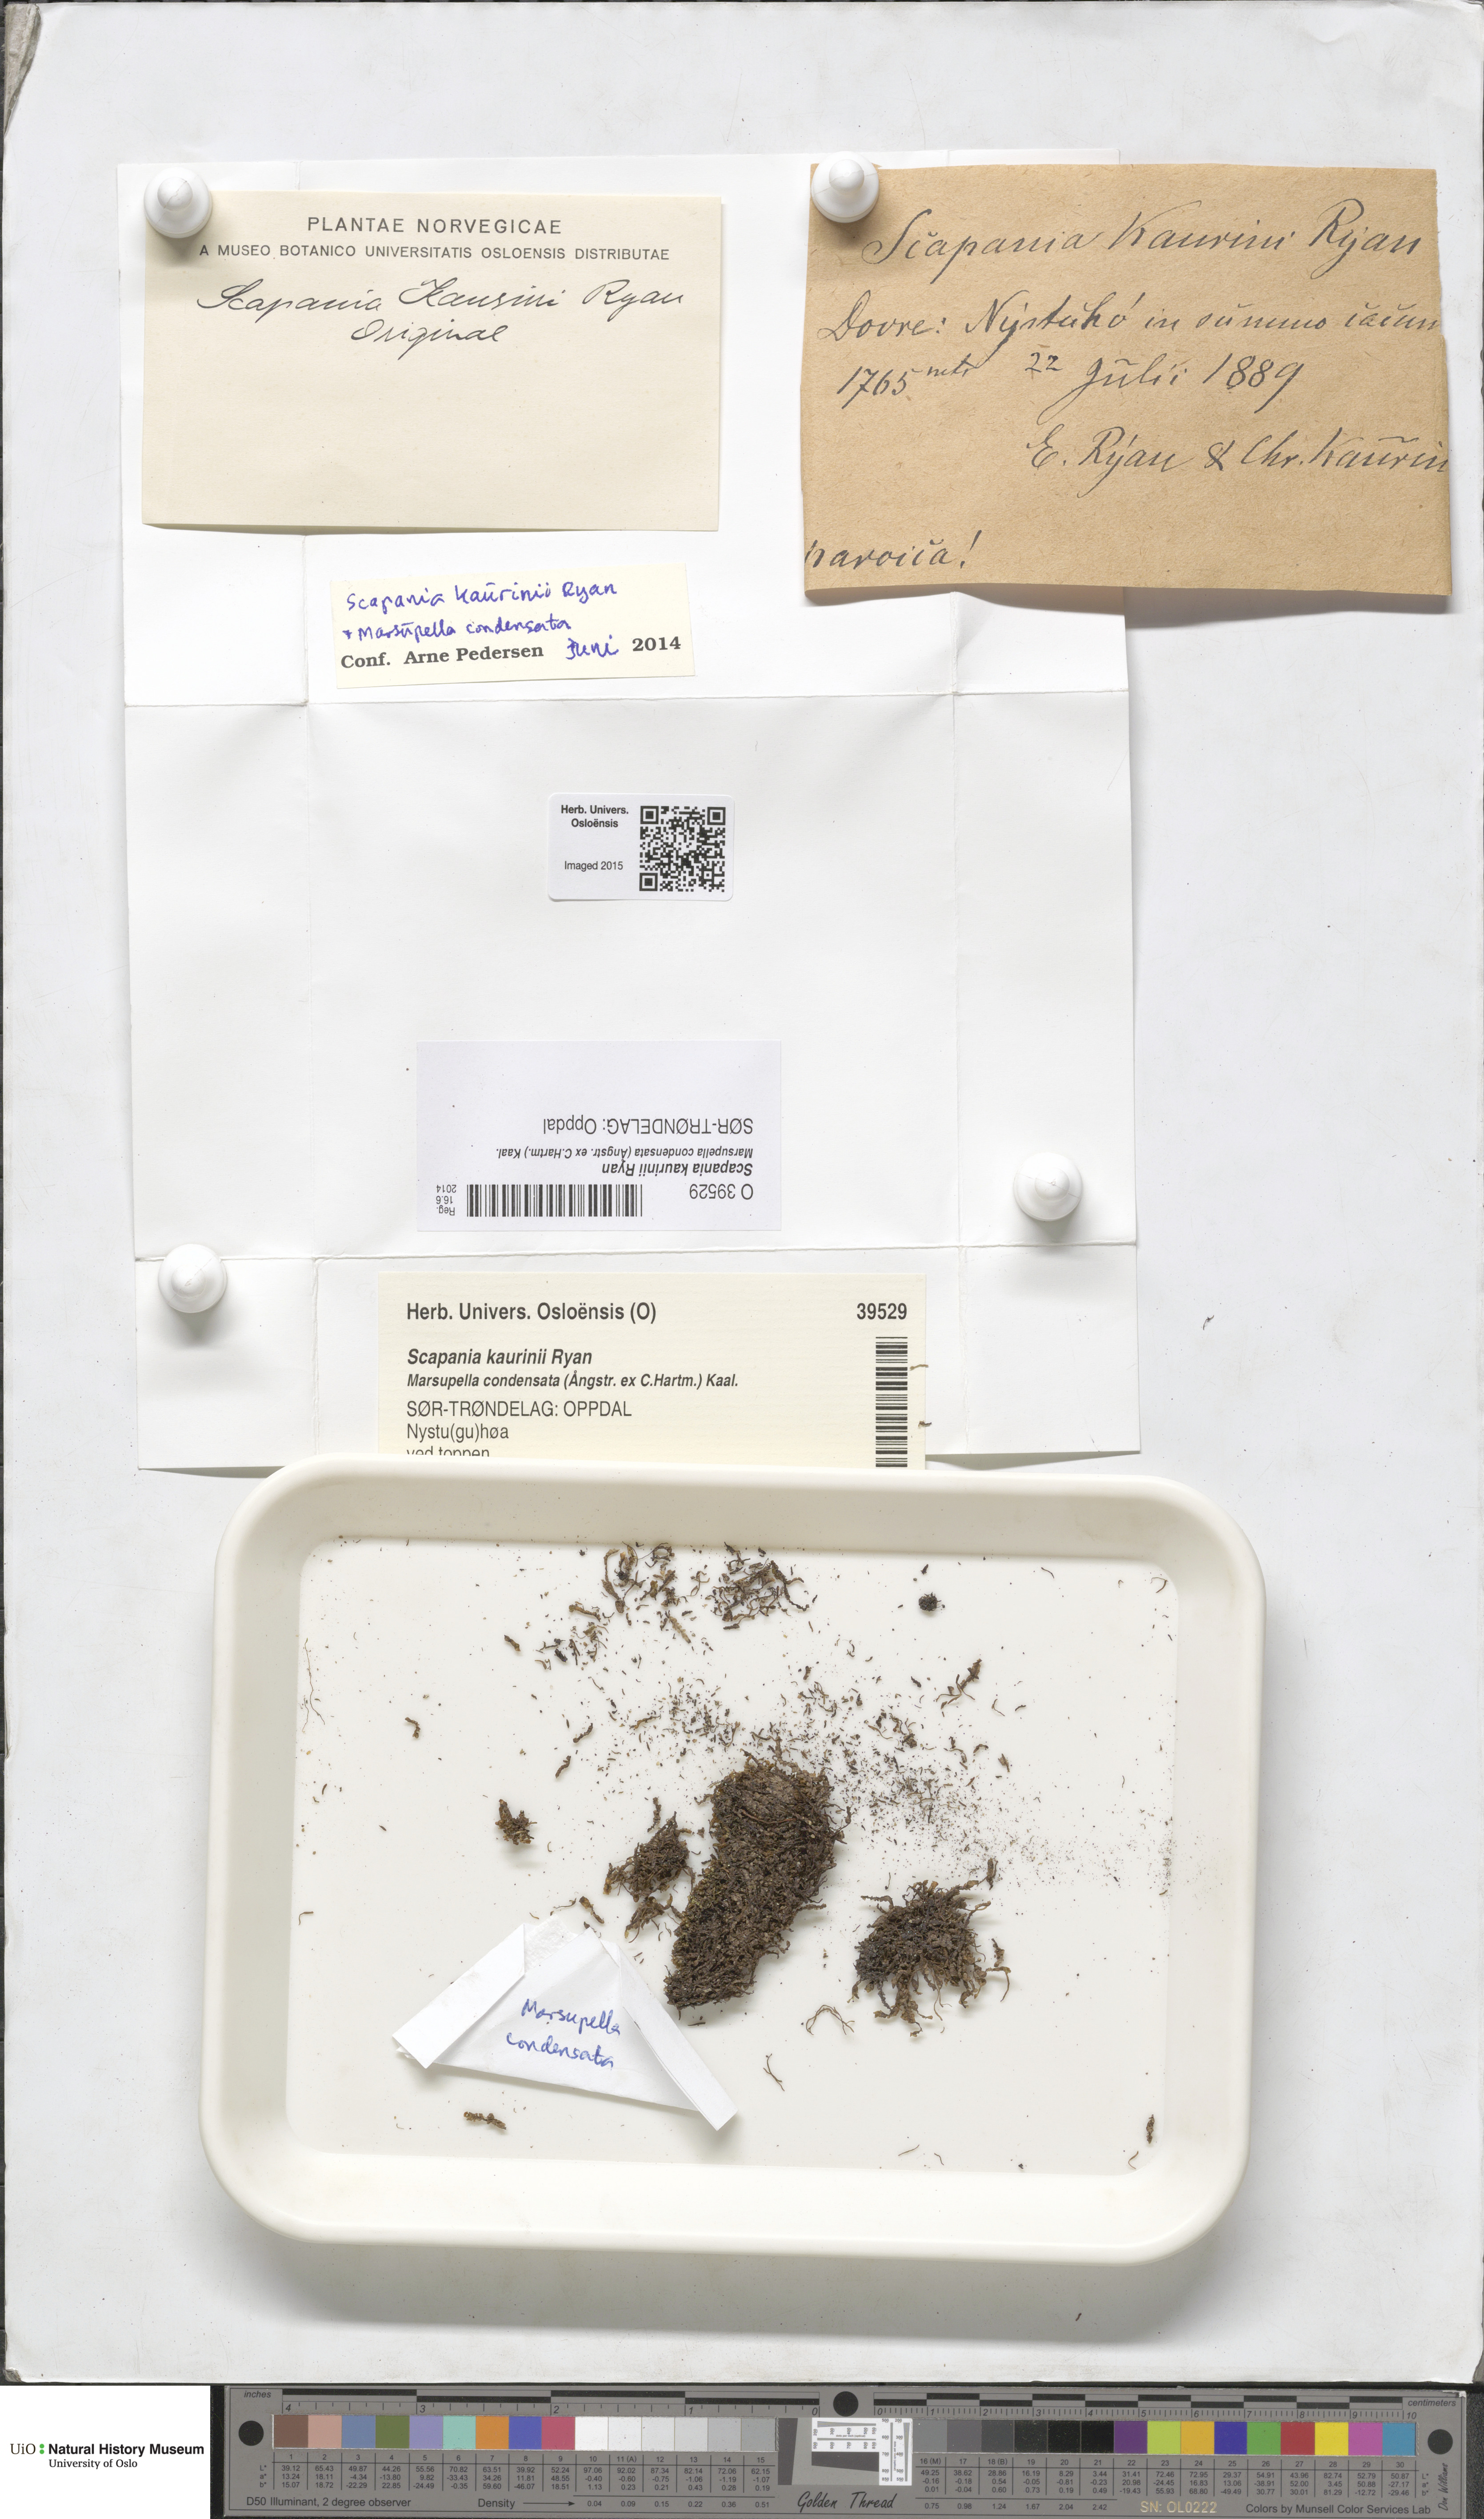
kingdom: Plantae
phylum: Marchantiophyta
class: Jungermanniopsida
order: Jungermanniales
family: Scapaniaceae
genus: Scapania
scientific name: Scapania kaurinii
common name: Kaurin s earwort
